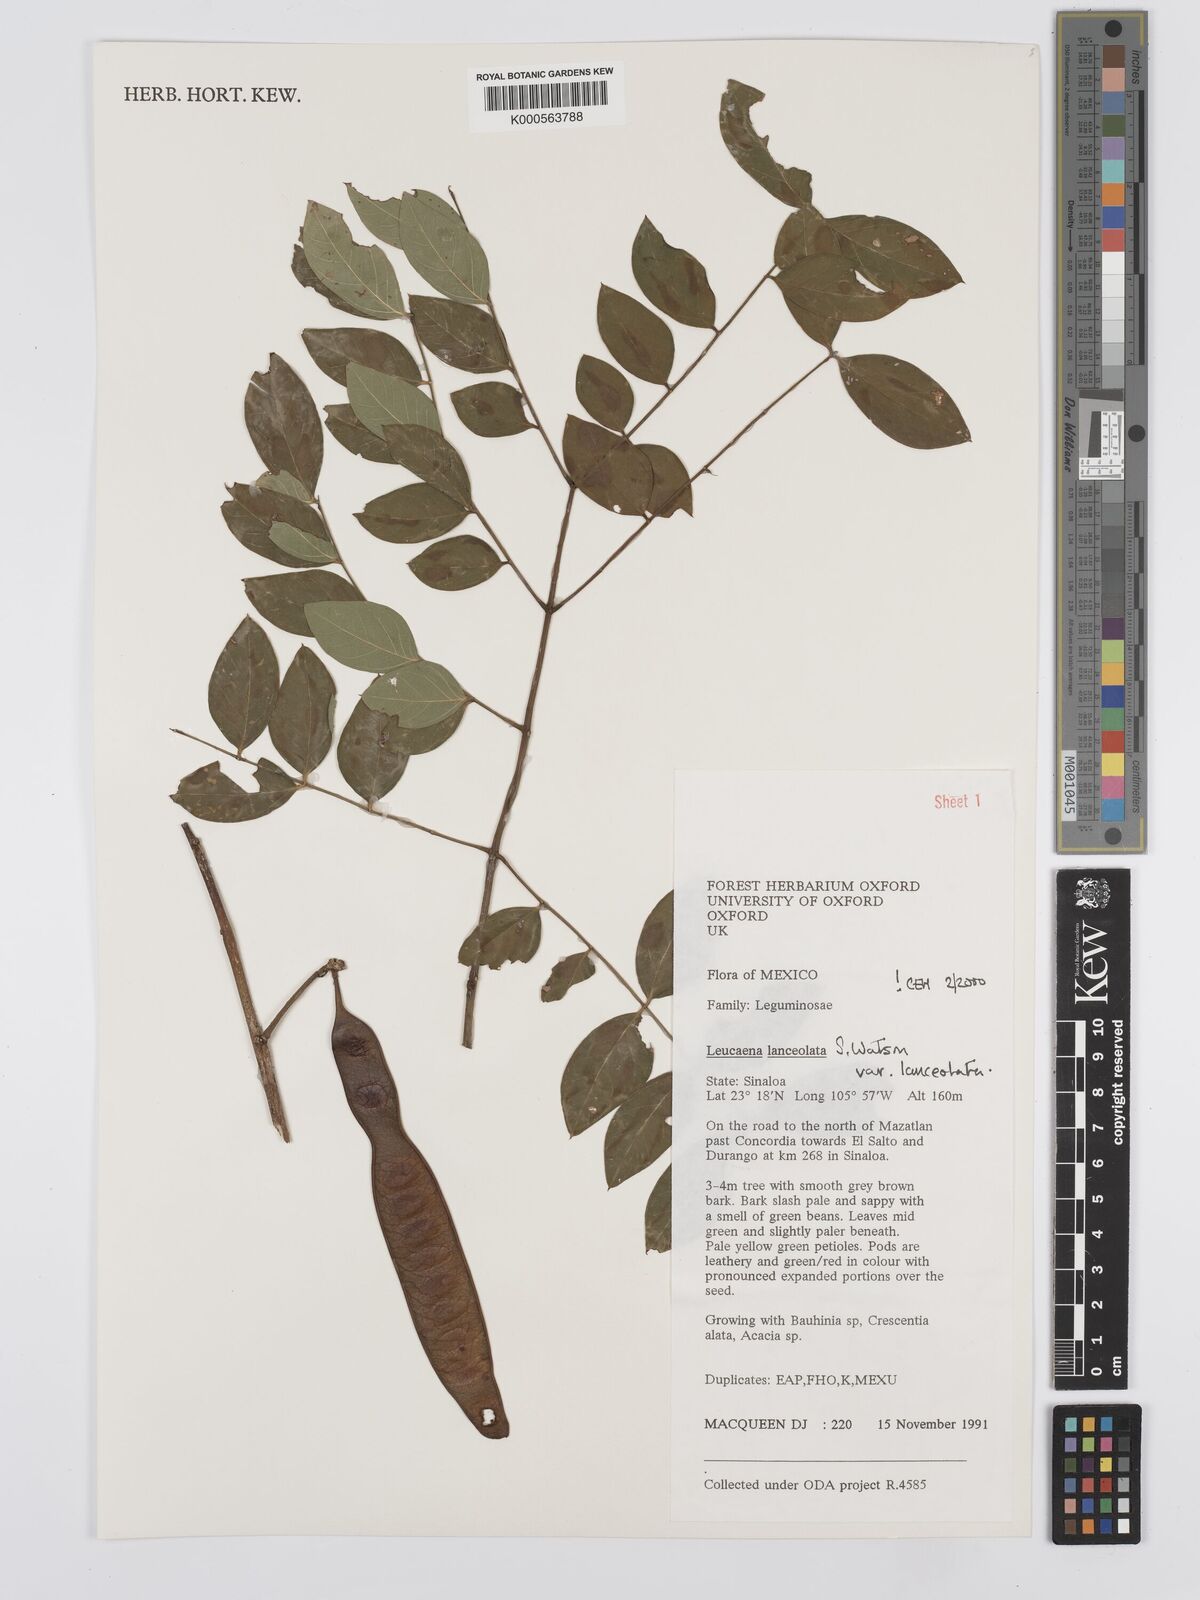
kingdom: Plantae
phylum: Tracheophyta
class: Magnoliopsida
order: Fabales
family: Fabaceae
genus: Leucaena
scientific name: Leucaena lanceolata
